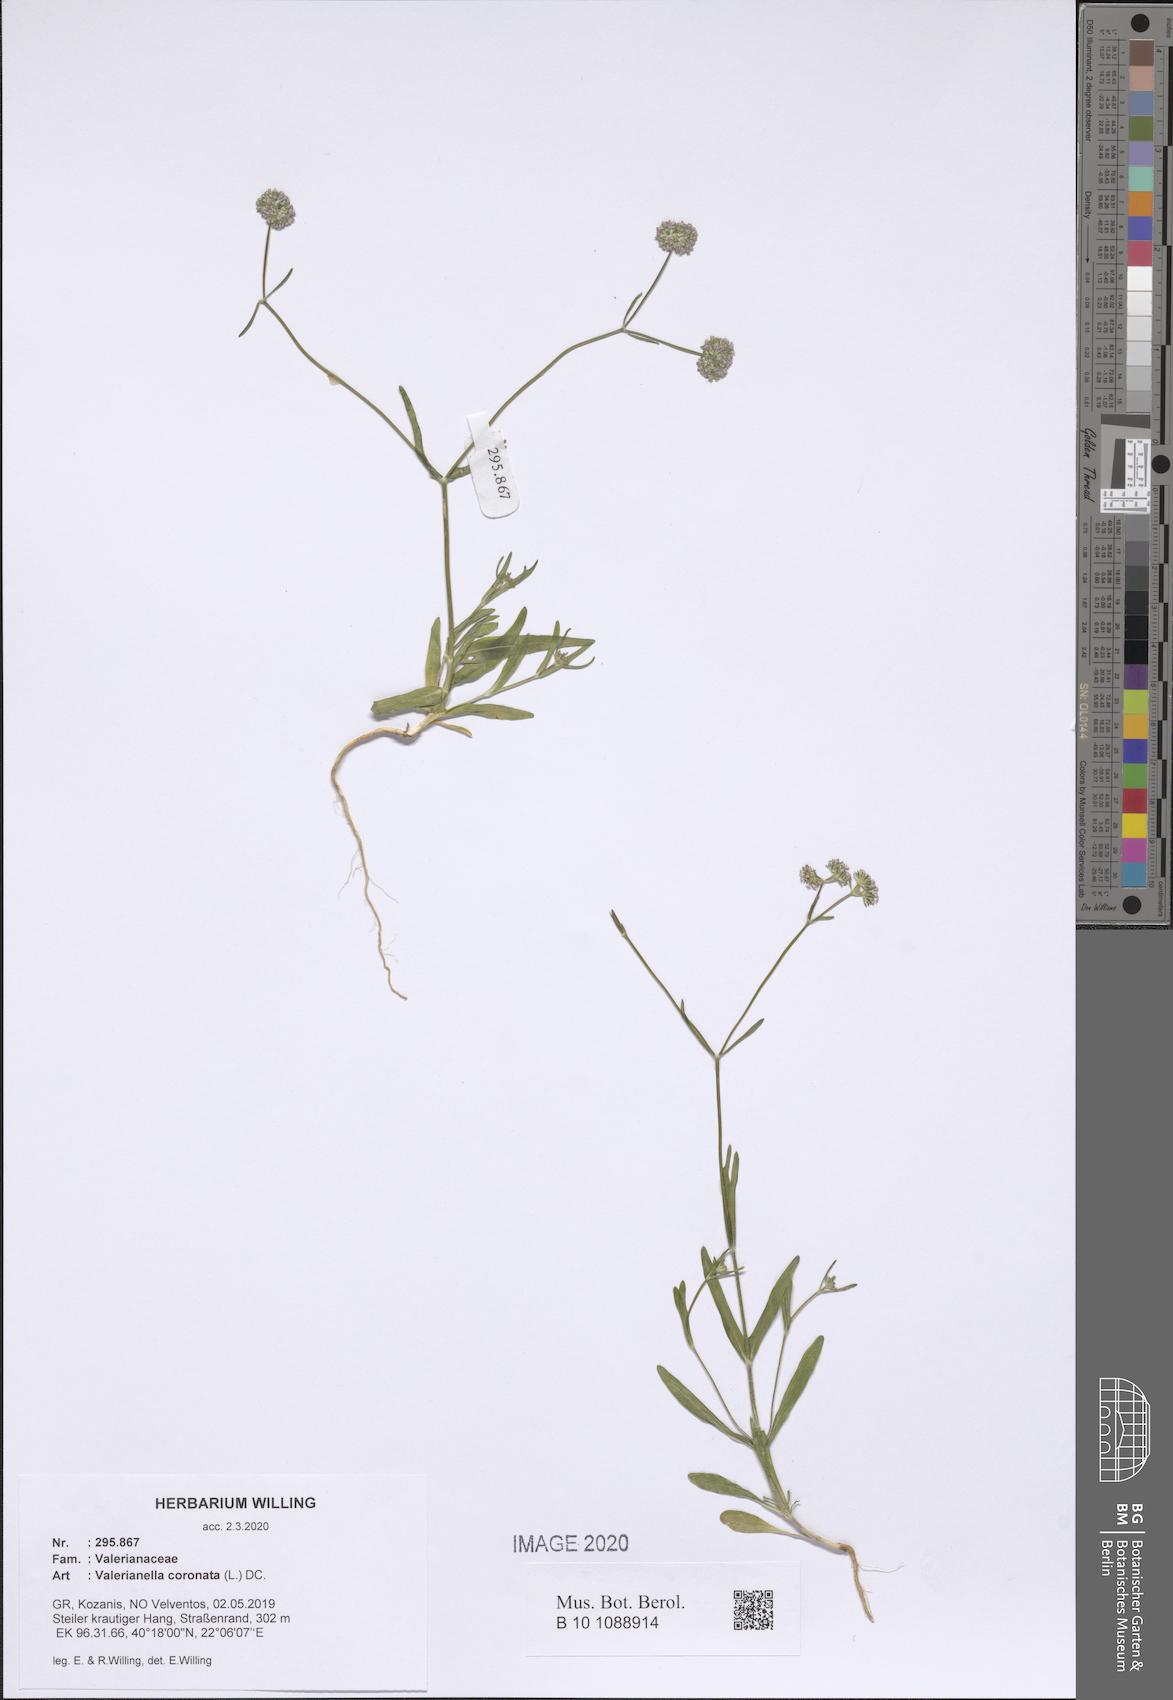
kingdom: Plantae
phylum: Tracheophyta
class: Magnoliopsida
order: Dipsacales
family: Caprifoliaceae
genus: Valerianella
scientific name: Valerianella coronata
